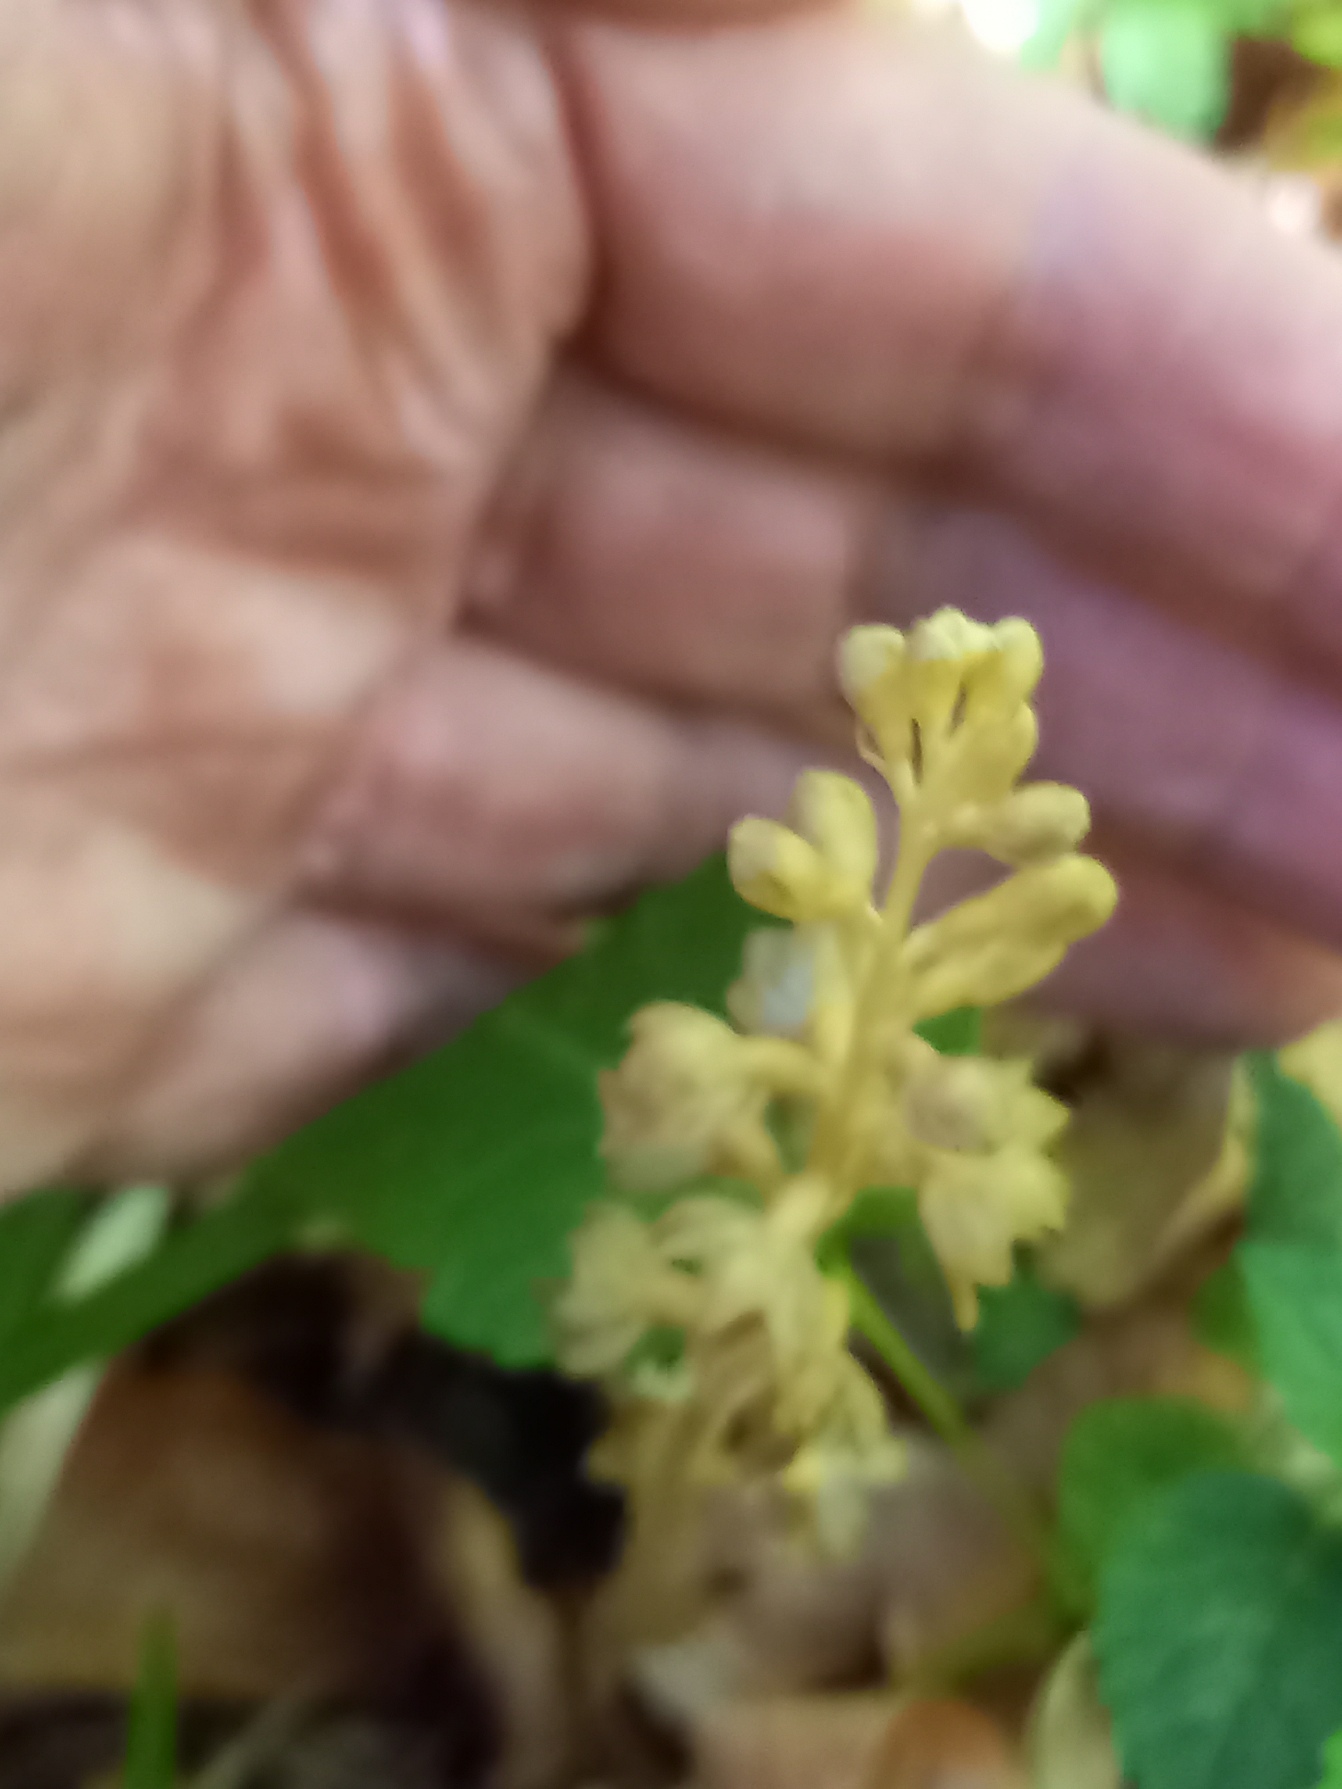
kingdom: Plantae
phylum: Tracheophyta
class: Liliopsida
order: Asparagales
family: Orchidaceae
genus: Neottia
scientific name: Neottia nidus-avis
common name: Rederod
